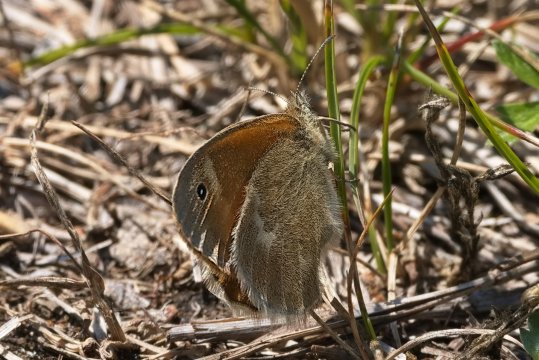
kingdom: Animalia
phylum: Arthropoda
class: Insecta
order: Lepidoptera
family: Nymphalidae
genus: Coenonympha
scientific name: Coenonympha california
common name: California Ringlet
